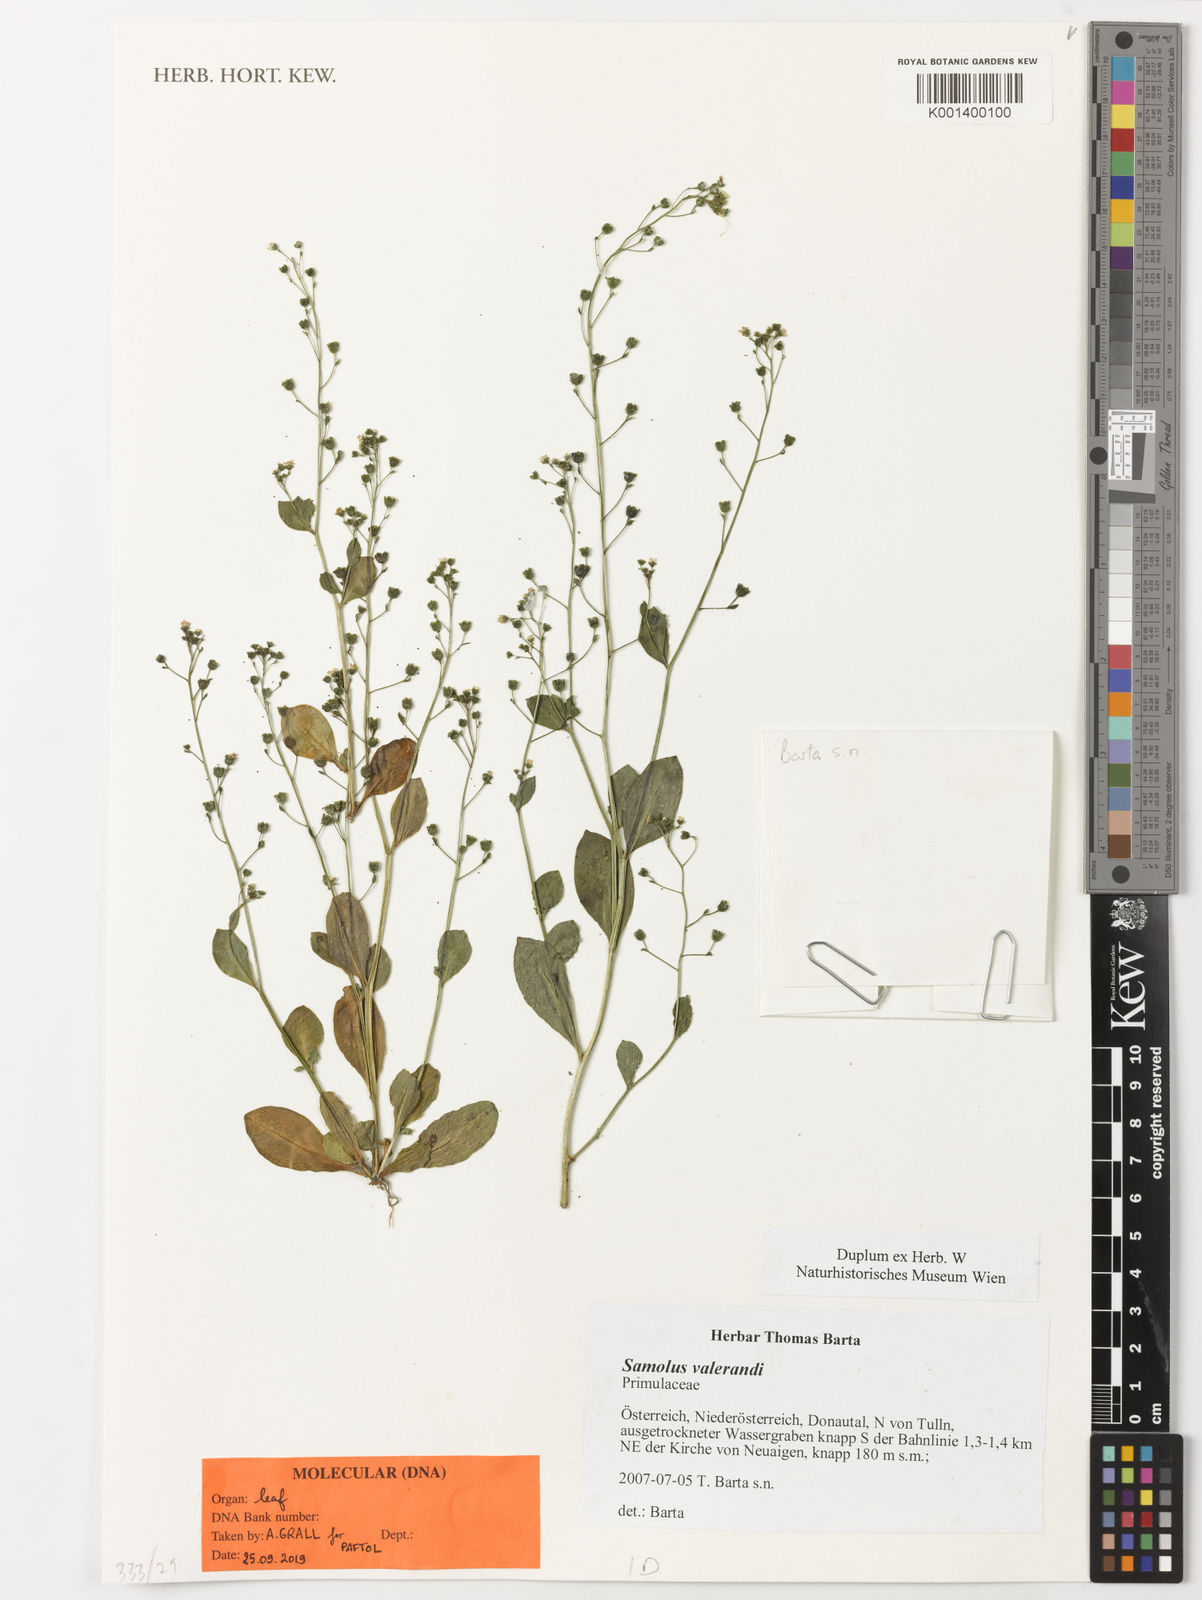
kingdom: Plantae
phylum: Tracheophyta
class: Magnoliopsida
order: Ericales
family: Primulaceae
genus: Samolus
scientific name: Samolus valerandi
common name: Brookweed
